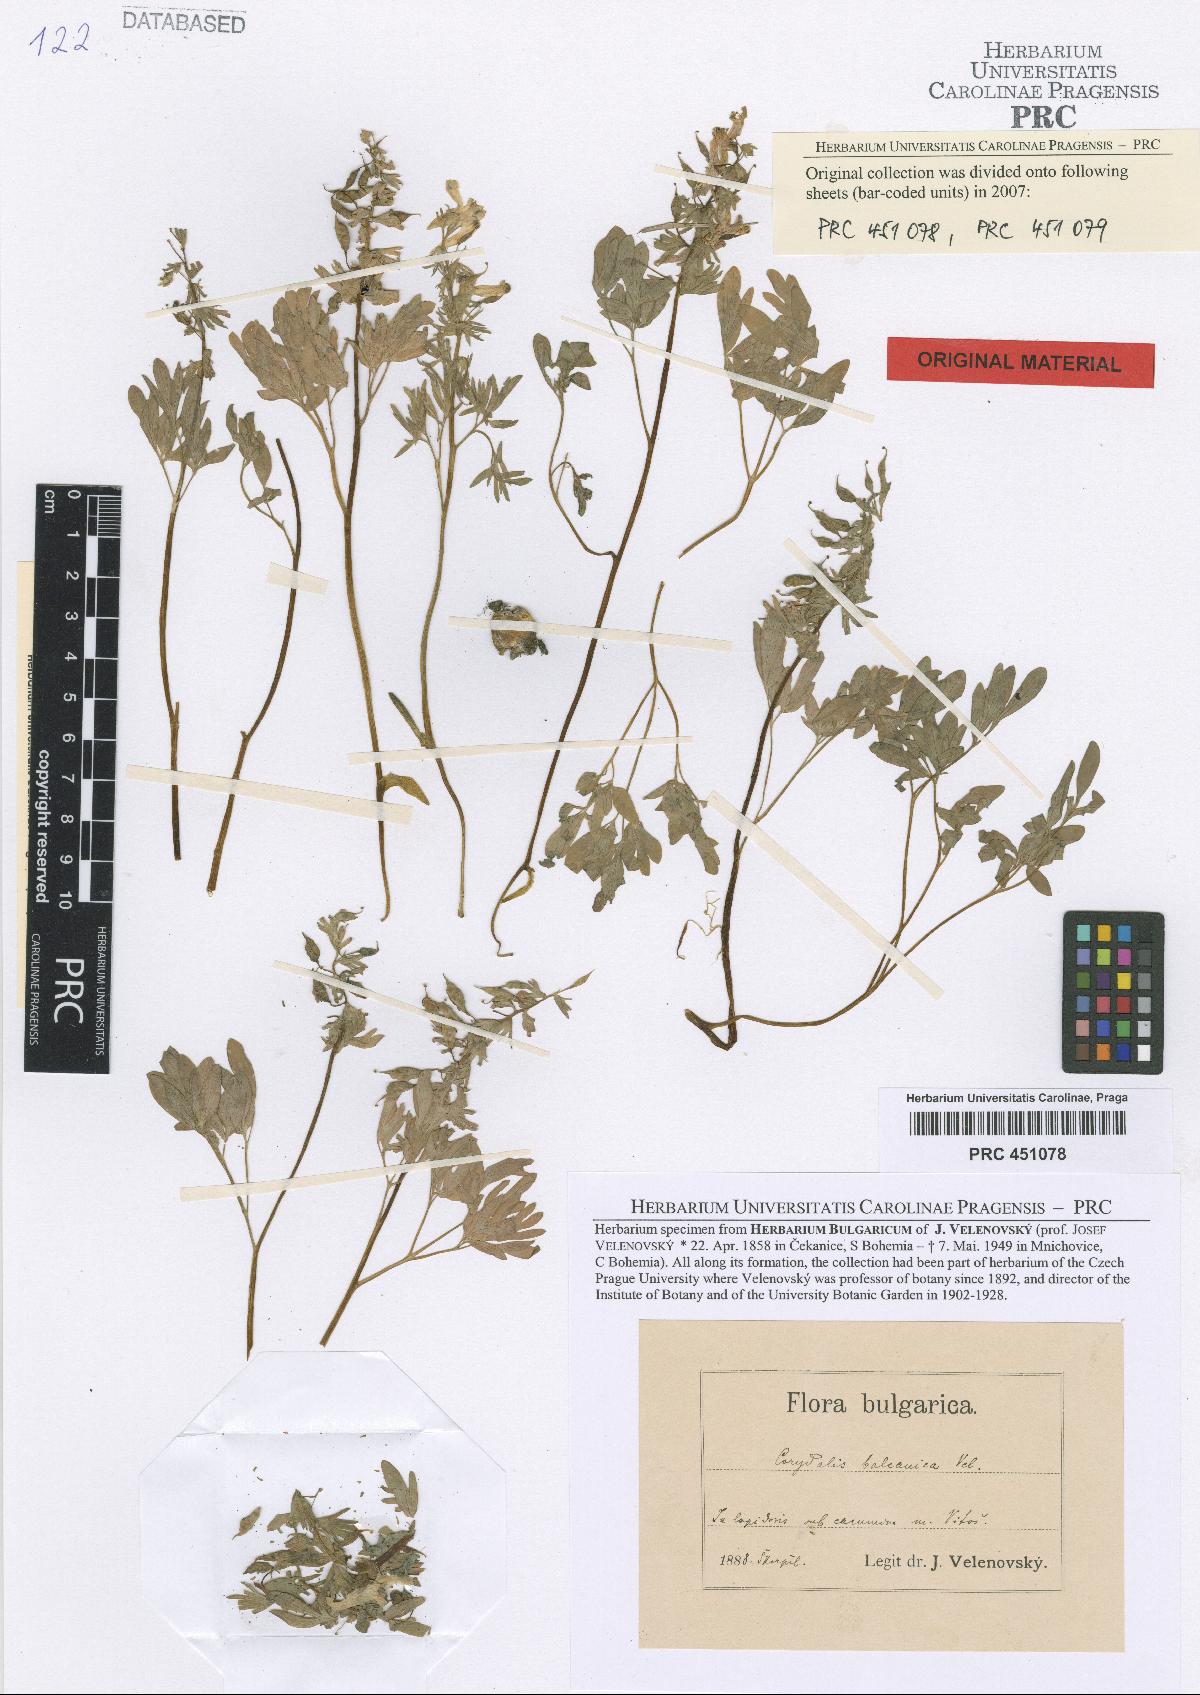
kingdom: Plantae
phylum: Tracheophyta
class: Magnoliopsida
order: Ranunculales
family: Papaveraceae
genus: Corydalis
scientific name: Corydalis solida
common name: Bird-in-a-bush
